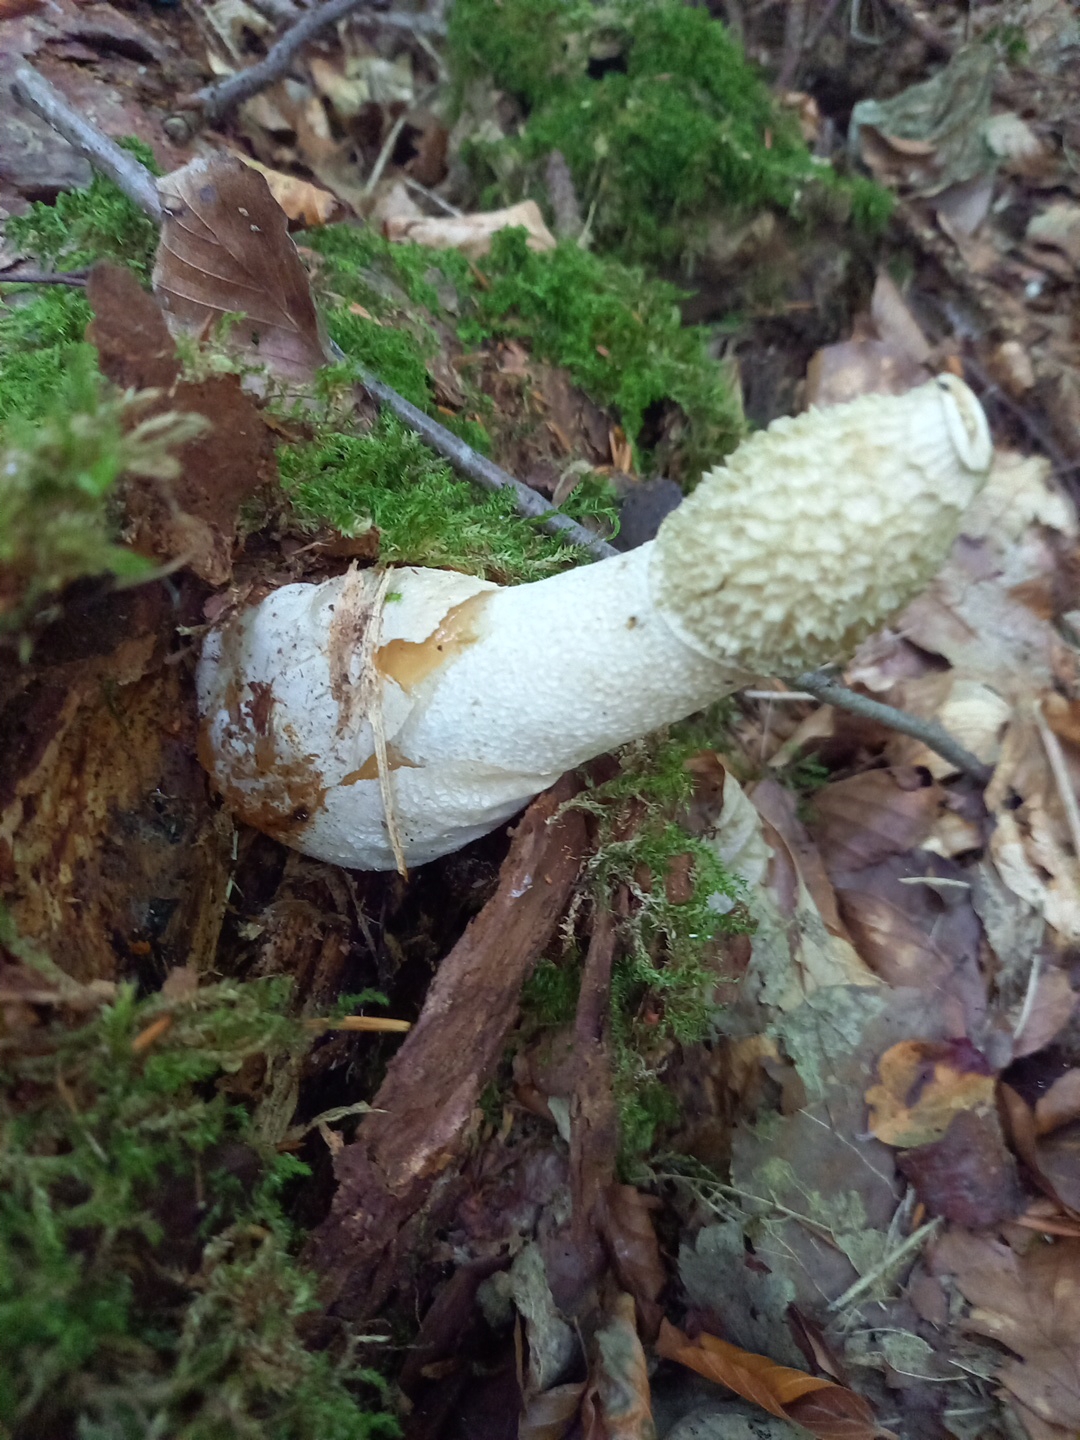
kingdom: Fungi
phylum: Basidiomycota
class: Agaricomycetes
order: Phallales
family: Phallaceae
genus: Phallus
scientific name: Phallus impudicus
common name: almindelig stinksvamp
